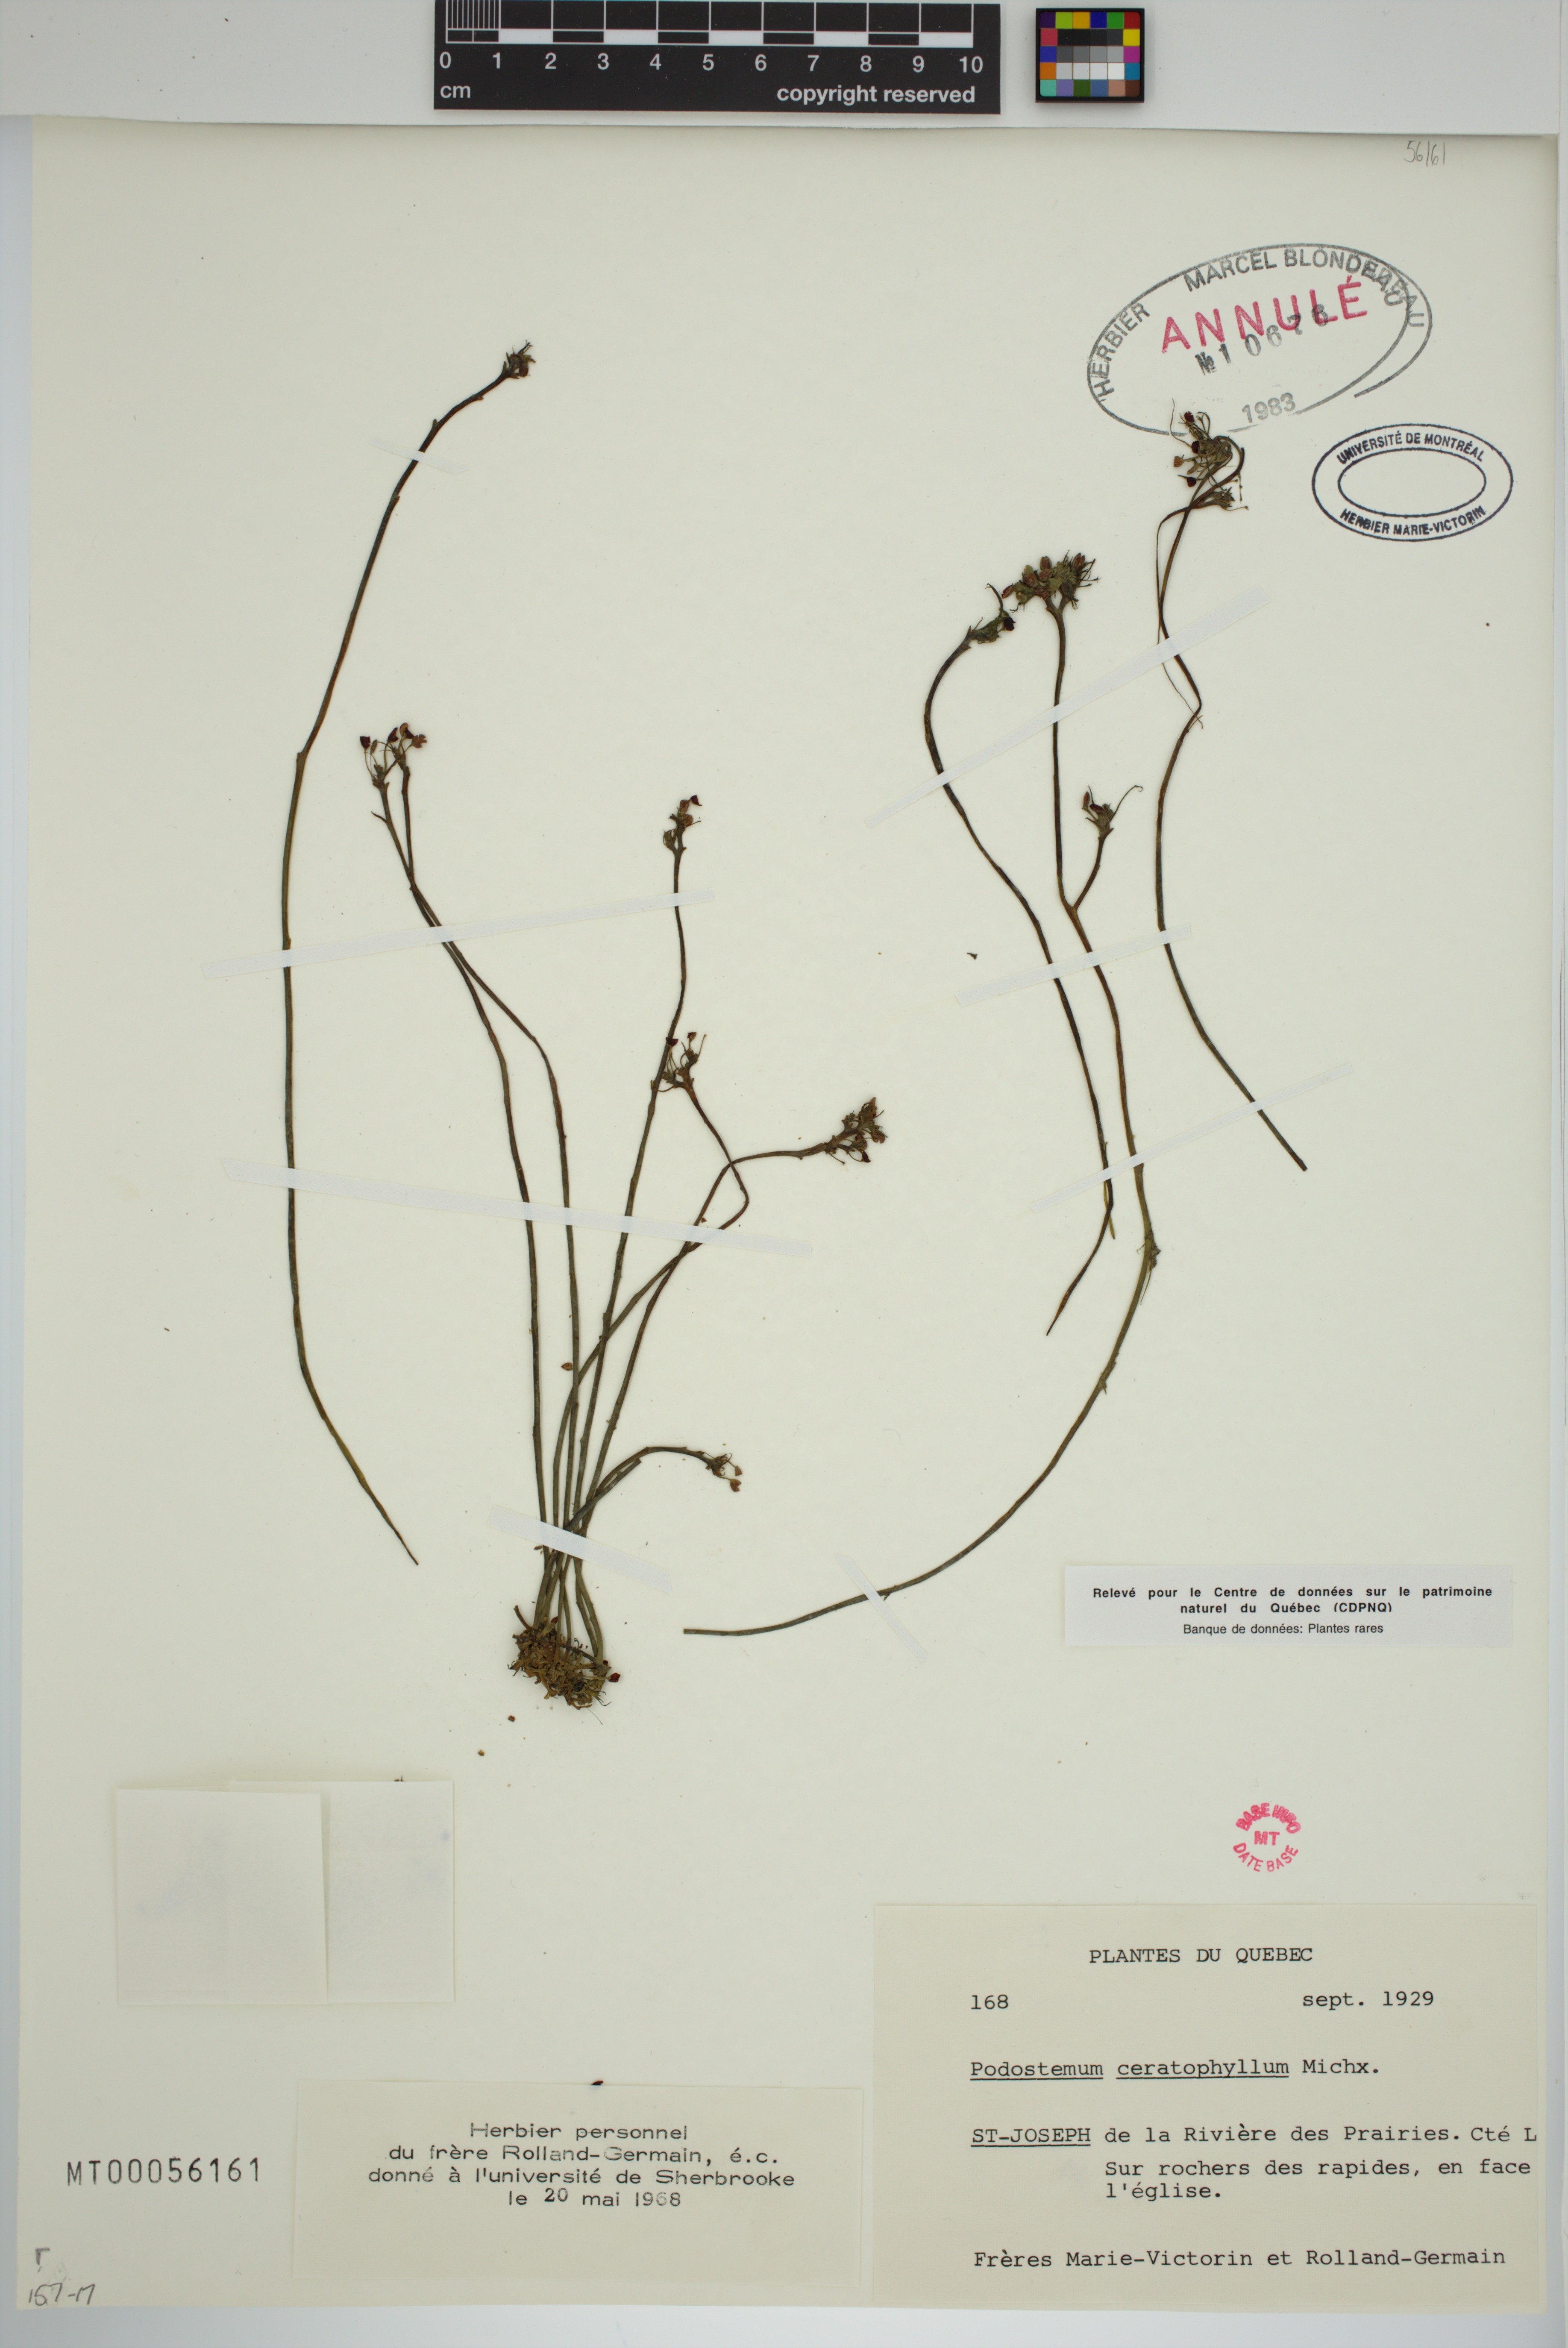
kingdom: Plantae
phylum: Tracheophyta
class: Magnoliopsida
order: Malpighiales
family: Podostemaceae
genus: Podostemum
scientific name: Podostemum ceratophyllum
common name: Horn-leaved riverweed
